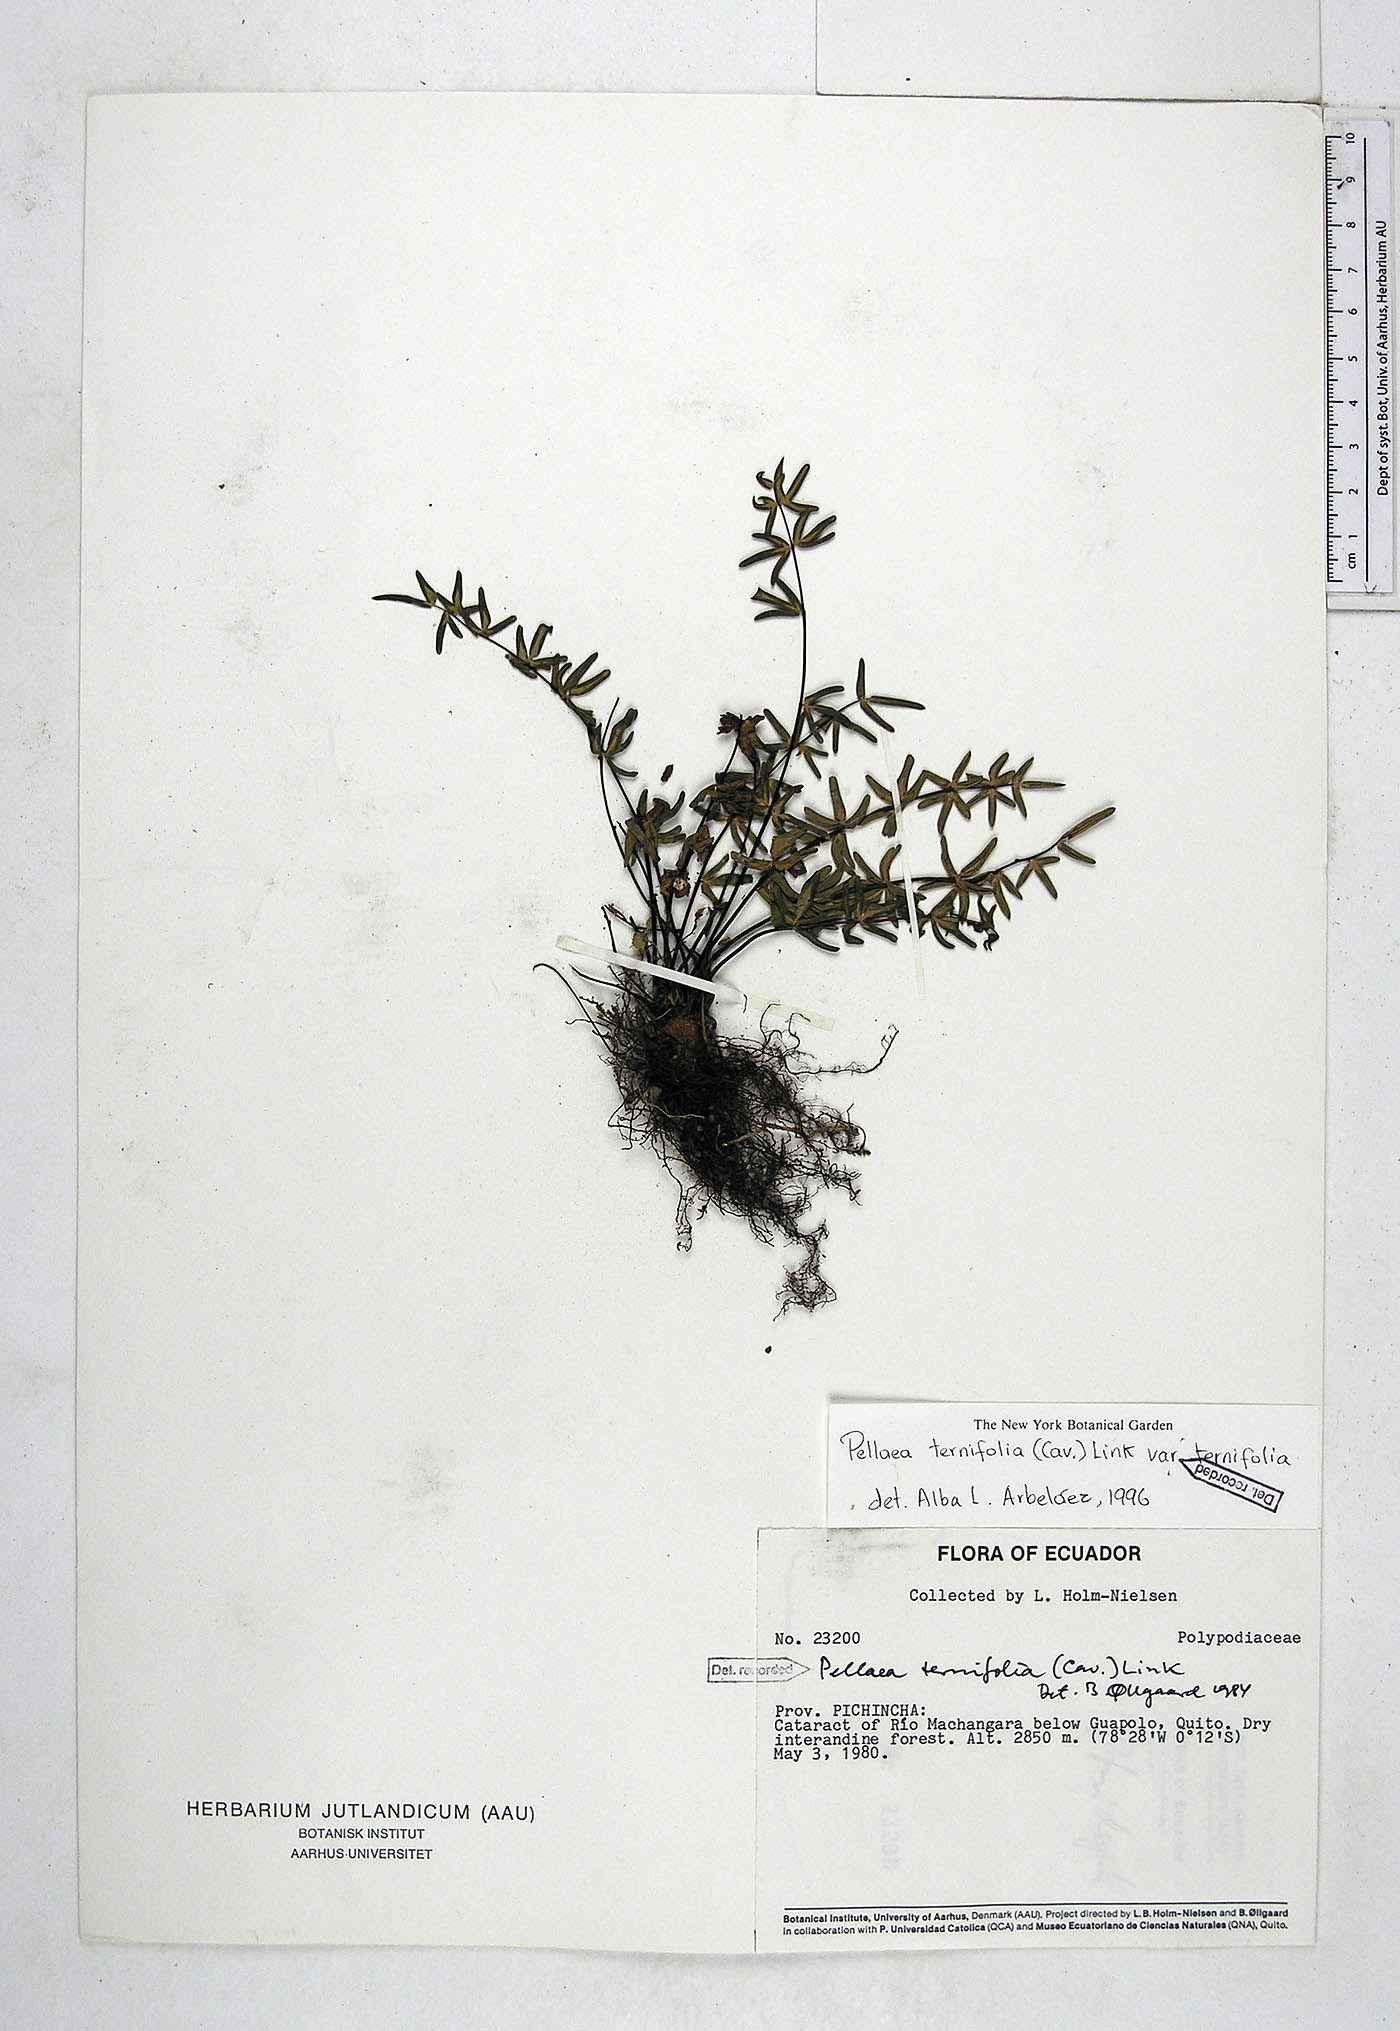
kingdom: Plantae
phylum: Tracheophyta
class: Polypodiopsida
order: Polypodiales
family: Pteridaceae
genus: Pellaea
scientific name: Pellaea ternifolia
